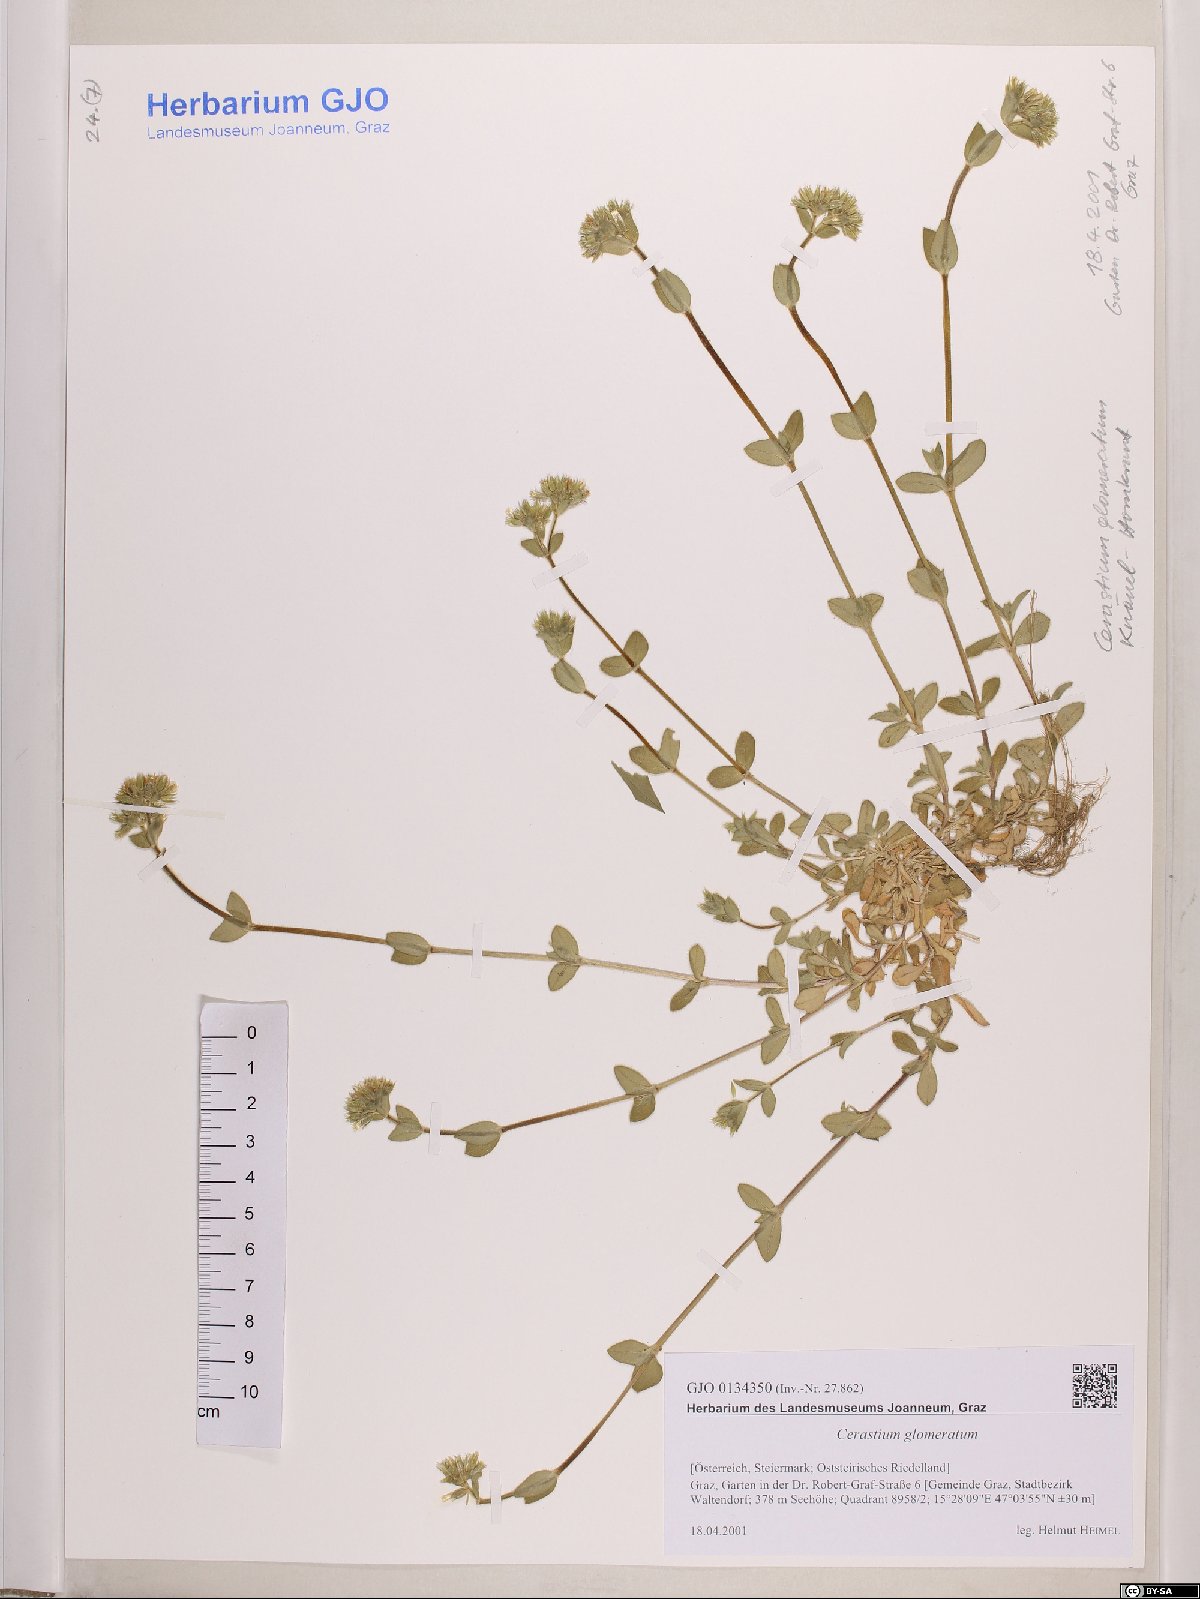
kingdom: Plantae
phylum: Tracheophyta
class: Magnoliopsida
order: Caryophyllales
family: Caryophyllaceae
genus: Cerastium
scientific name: Cerastium glomeratum
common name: Sticky chickweed
